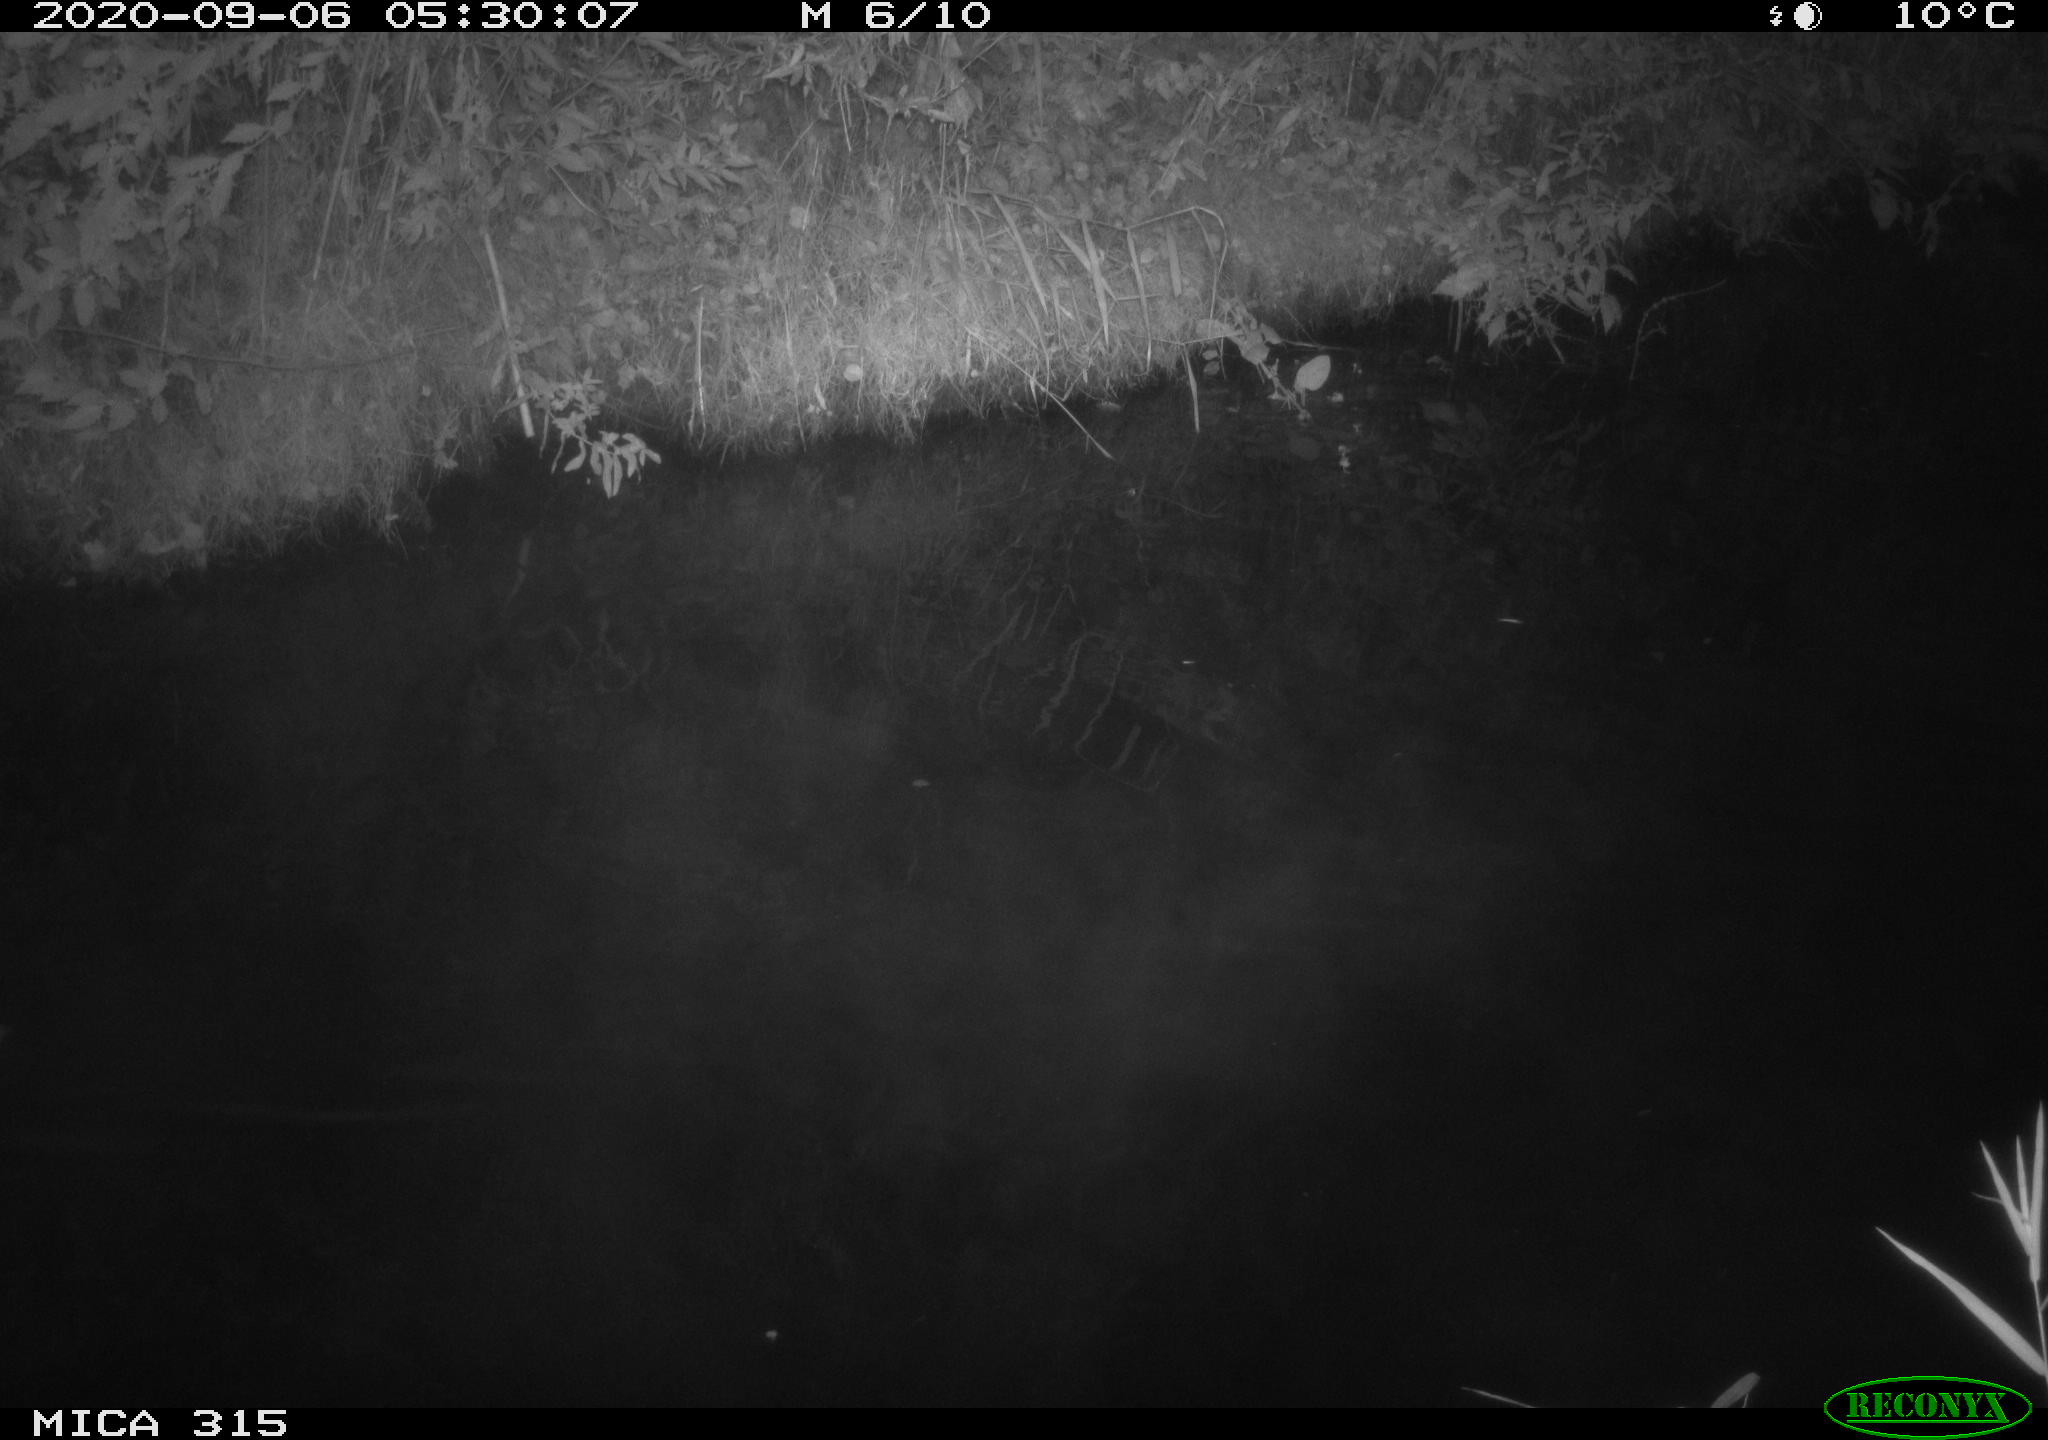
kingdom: Animalia
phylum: Chordata
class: Aves
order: Anseriformes
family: Anatidae
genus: Anas
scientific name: Anas platyrhynchos
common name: Mallard
